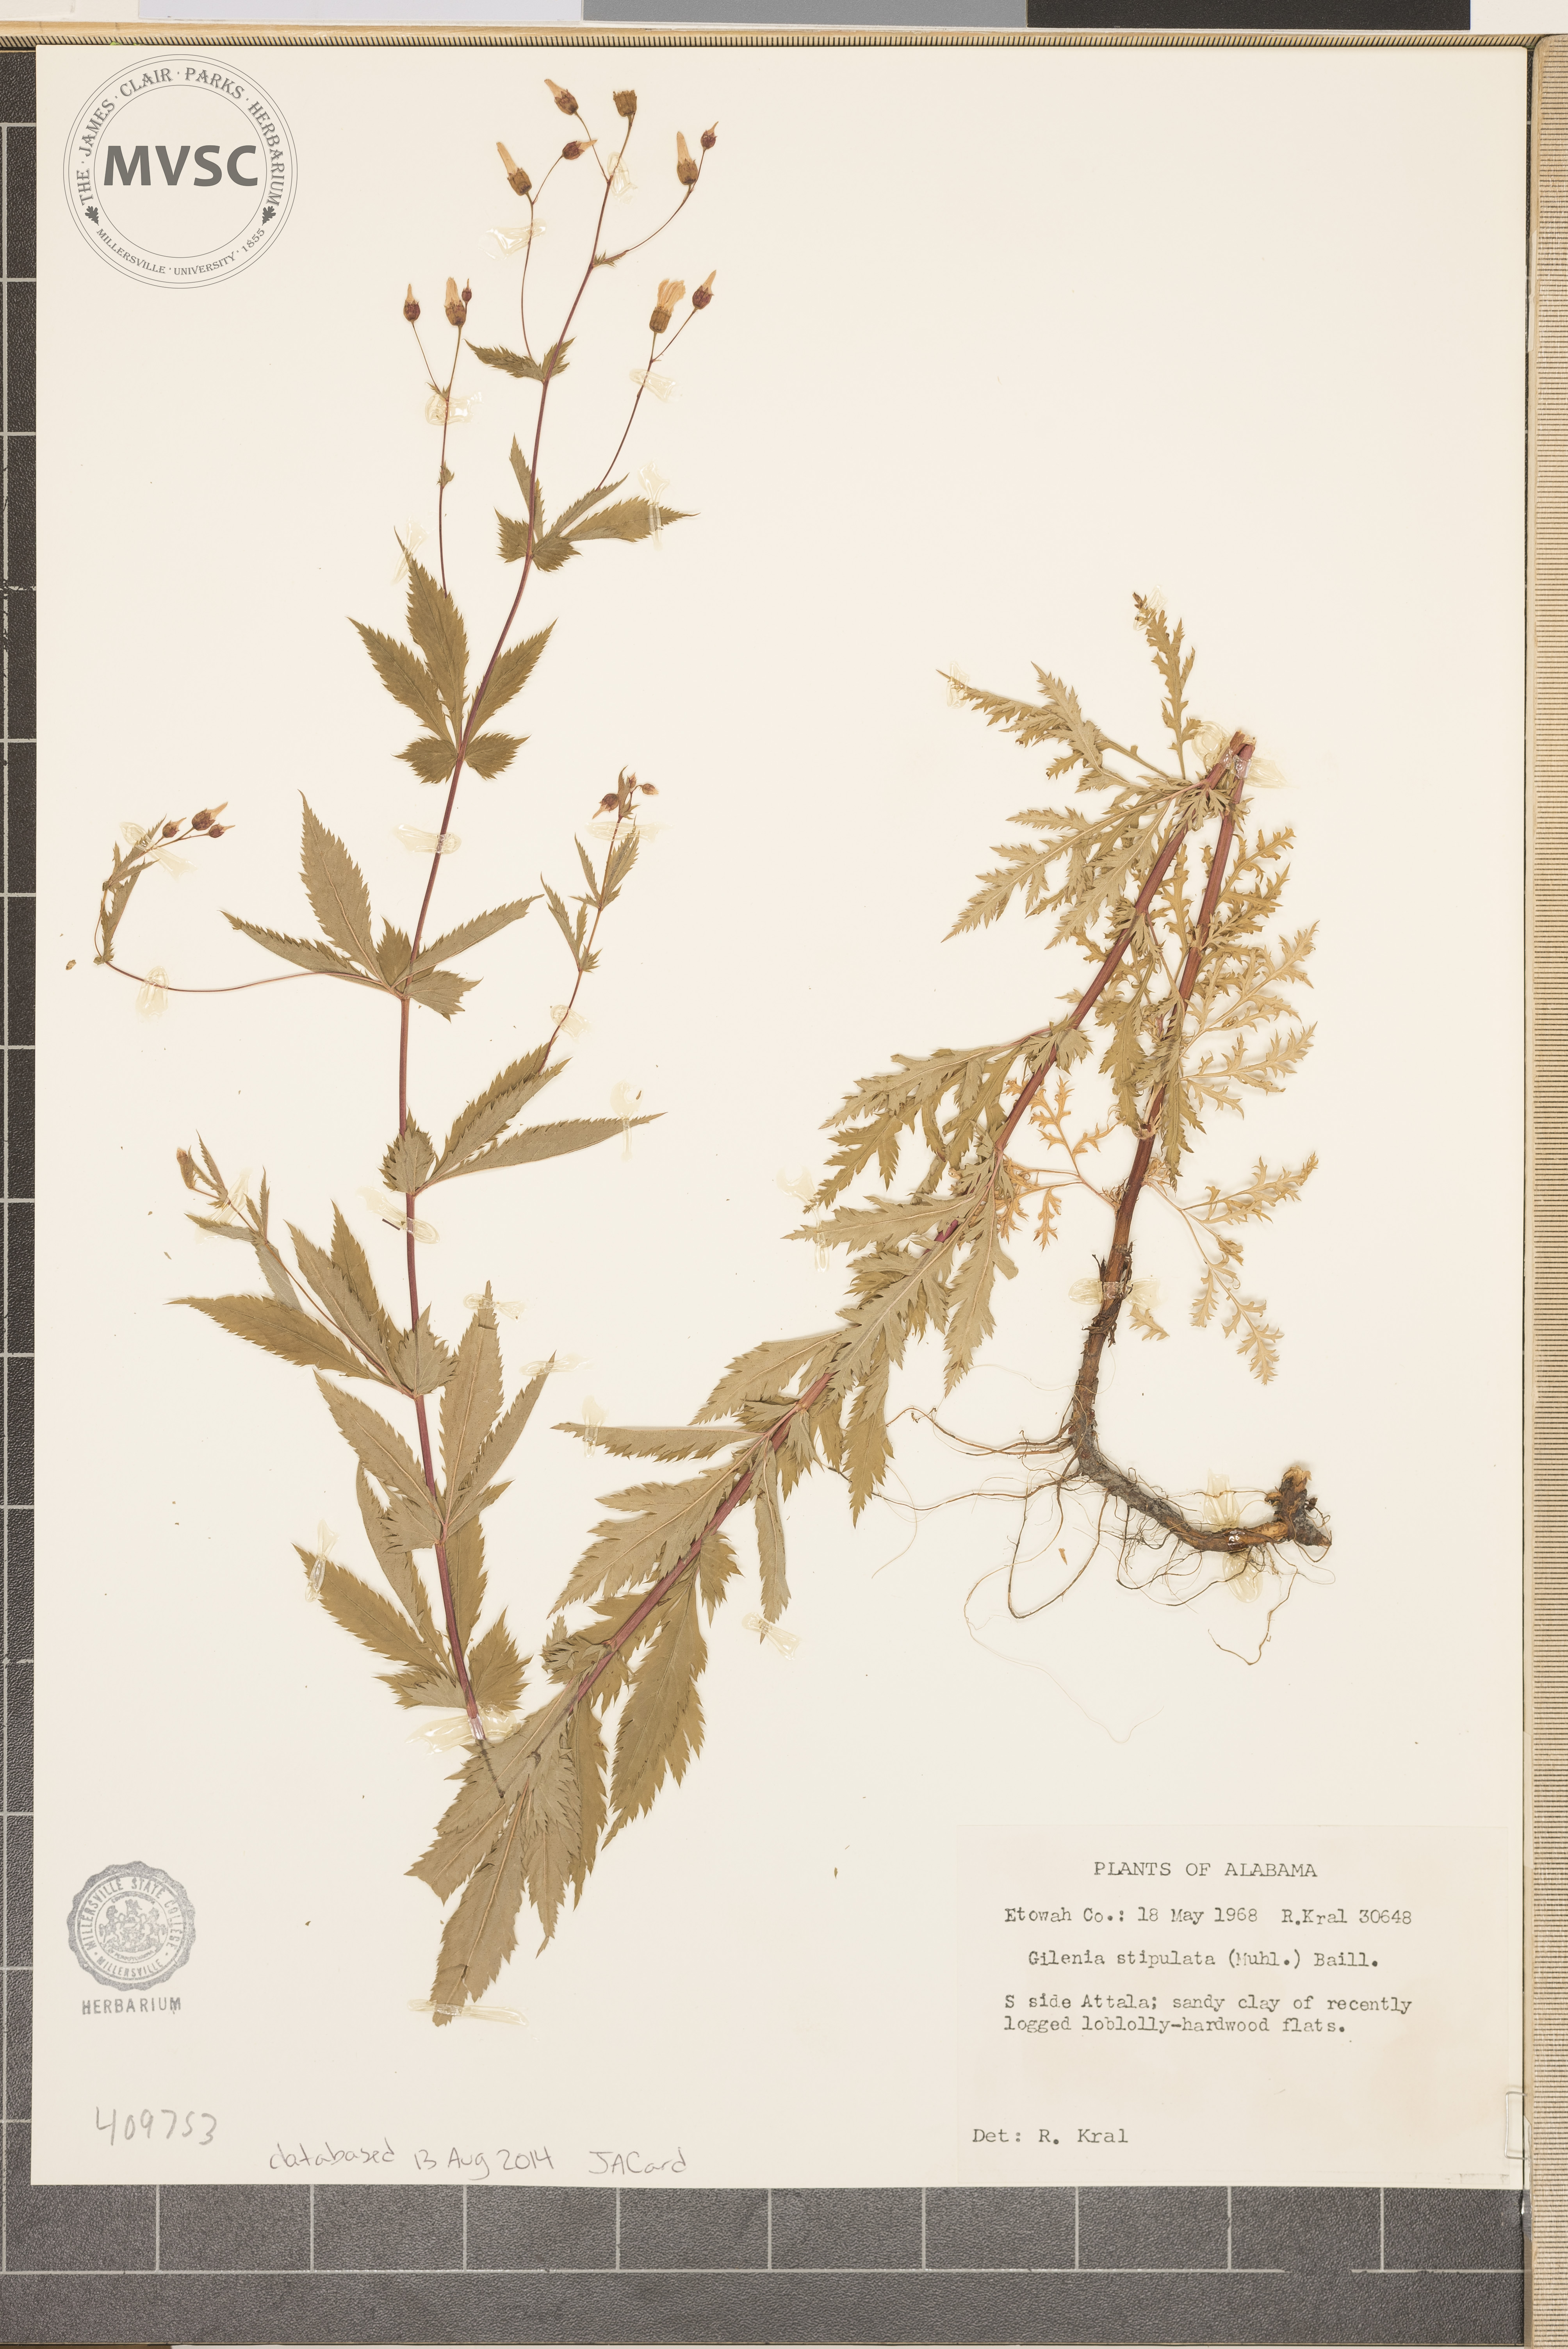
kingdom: Plantae
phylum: Tracheophyta
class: Magnoliopsida
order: Rosales
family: Rosaceae
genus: Gillenia
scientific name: Gillenia stipulata
